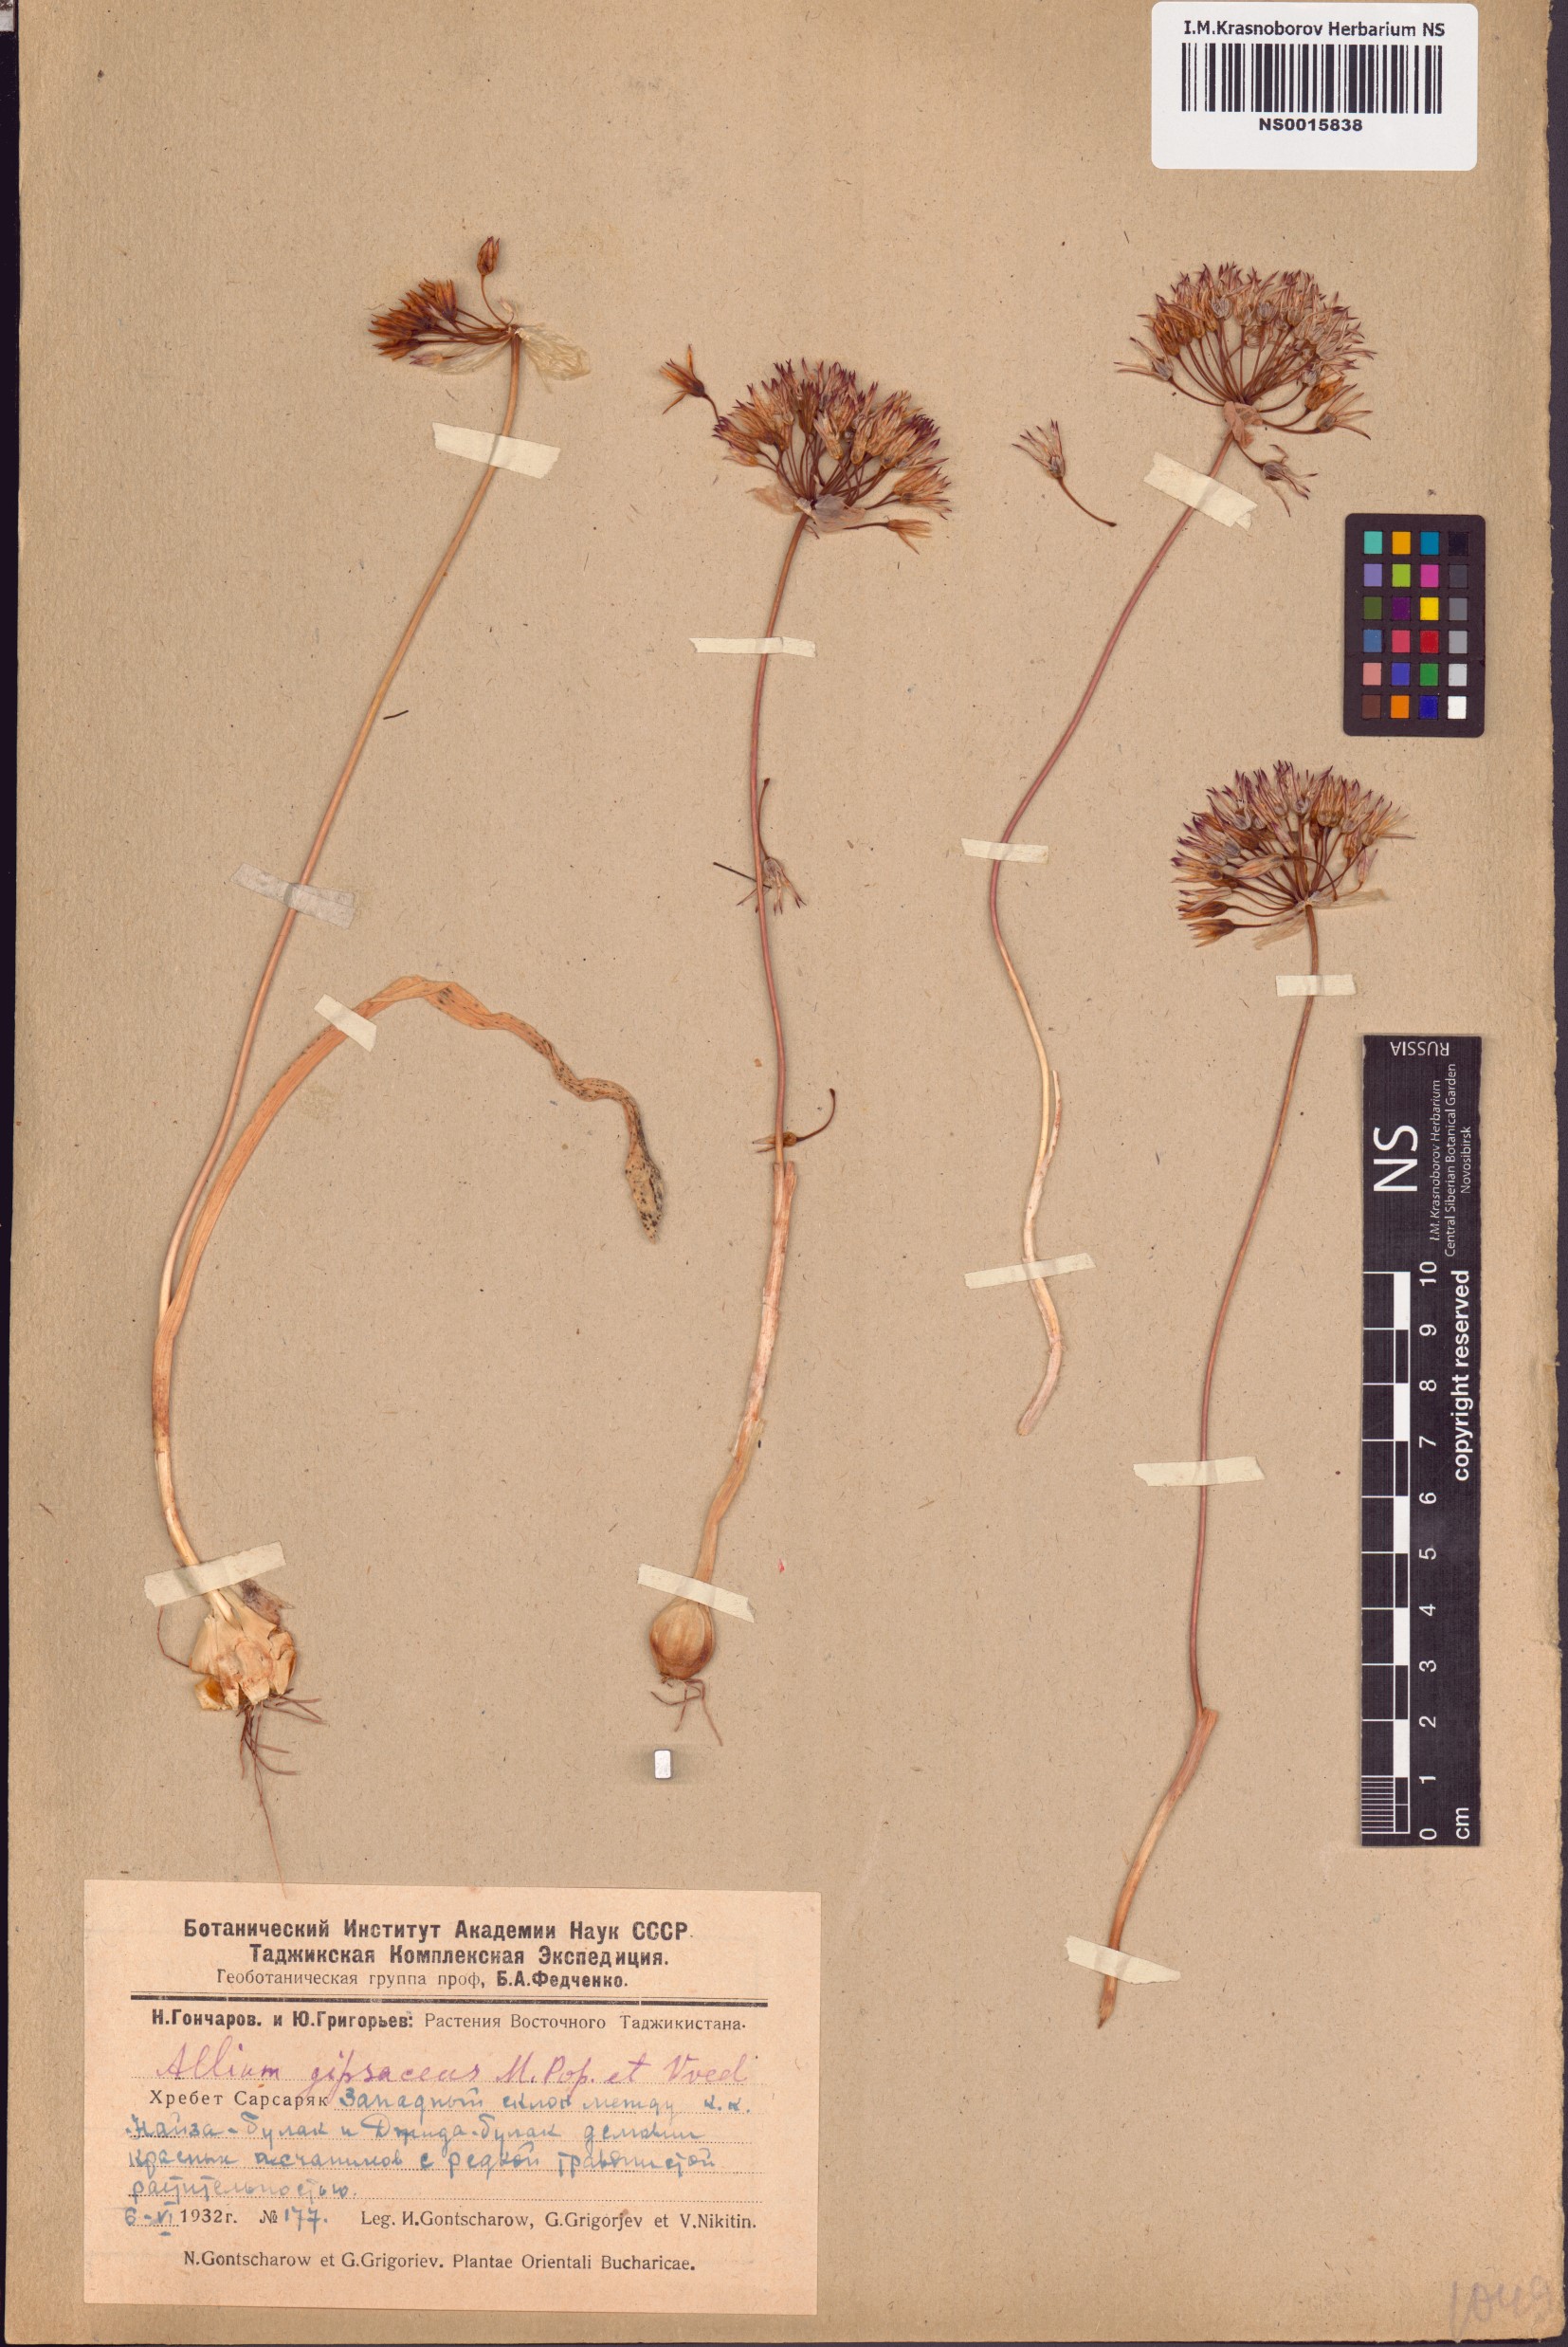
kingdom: Plantae
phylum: Tracheophyta
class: Liliopsida
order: Asparagales
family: Amaryllidaceae
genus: Allium
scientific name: Allium gypsaceum
